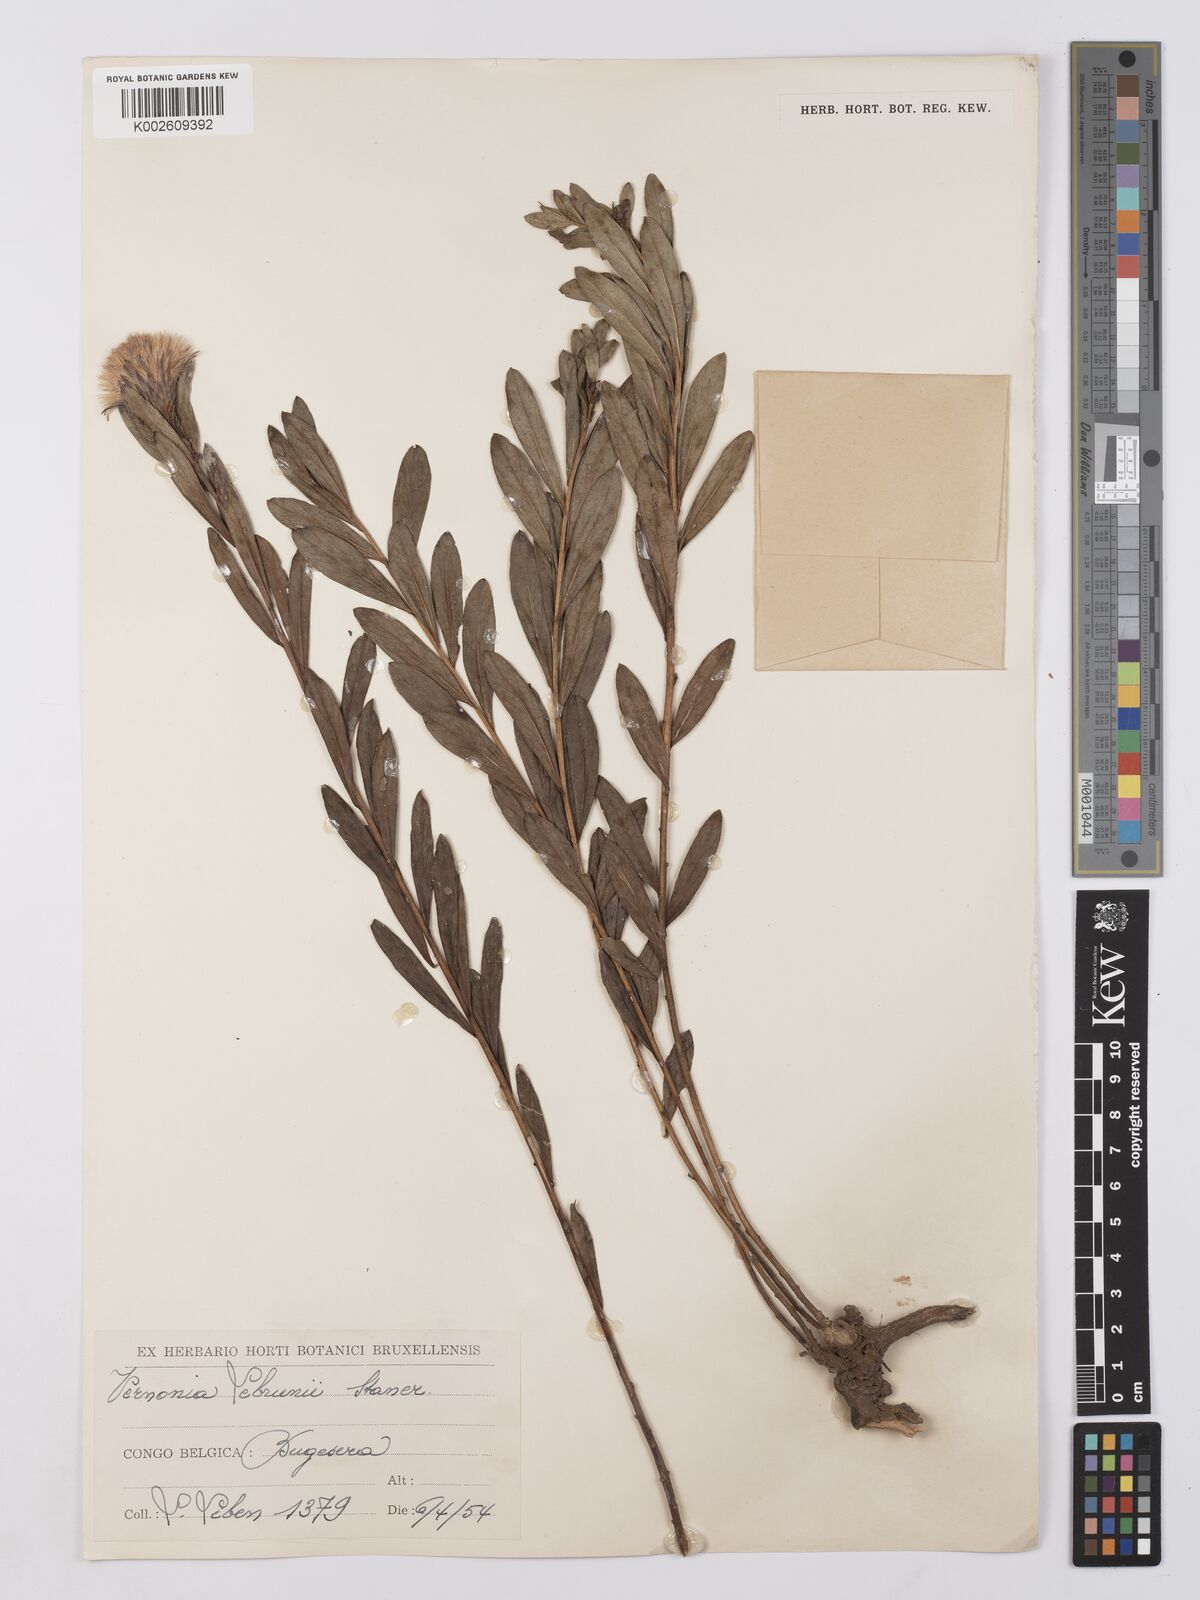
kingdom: Plantae
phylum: Tracheophyta
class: Magnoliopsida
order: Asterales
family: Asteraceae
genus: Vernonia
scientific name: Vernonia
